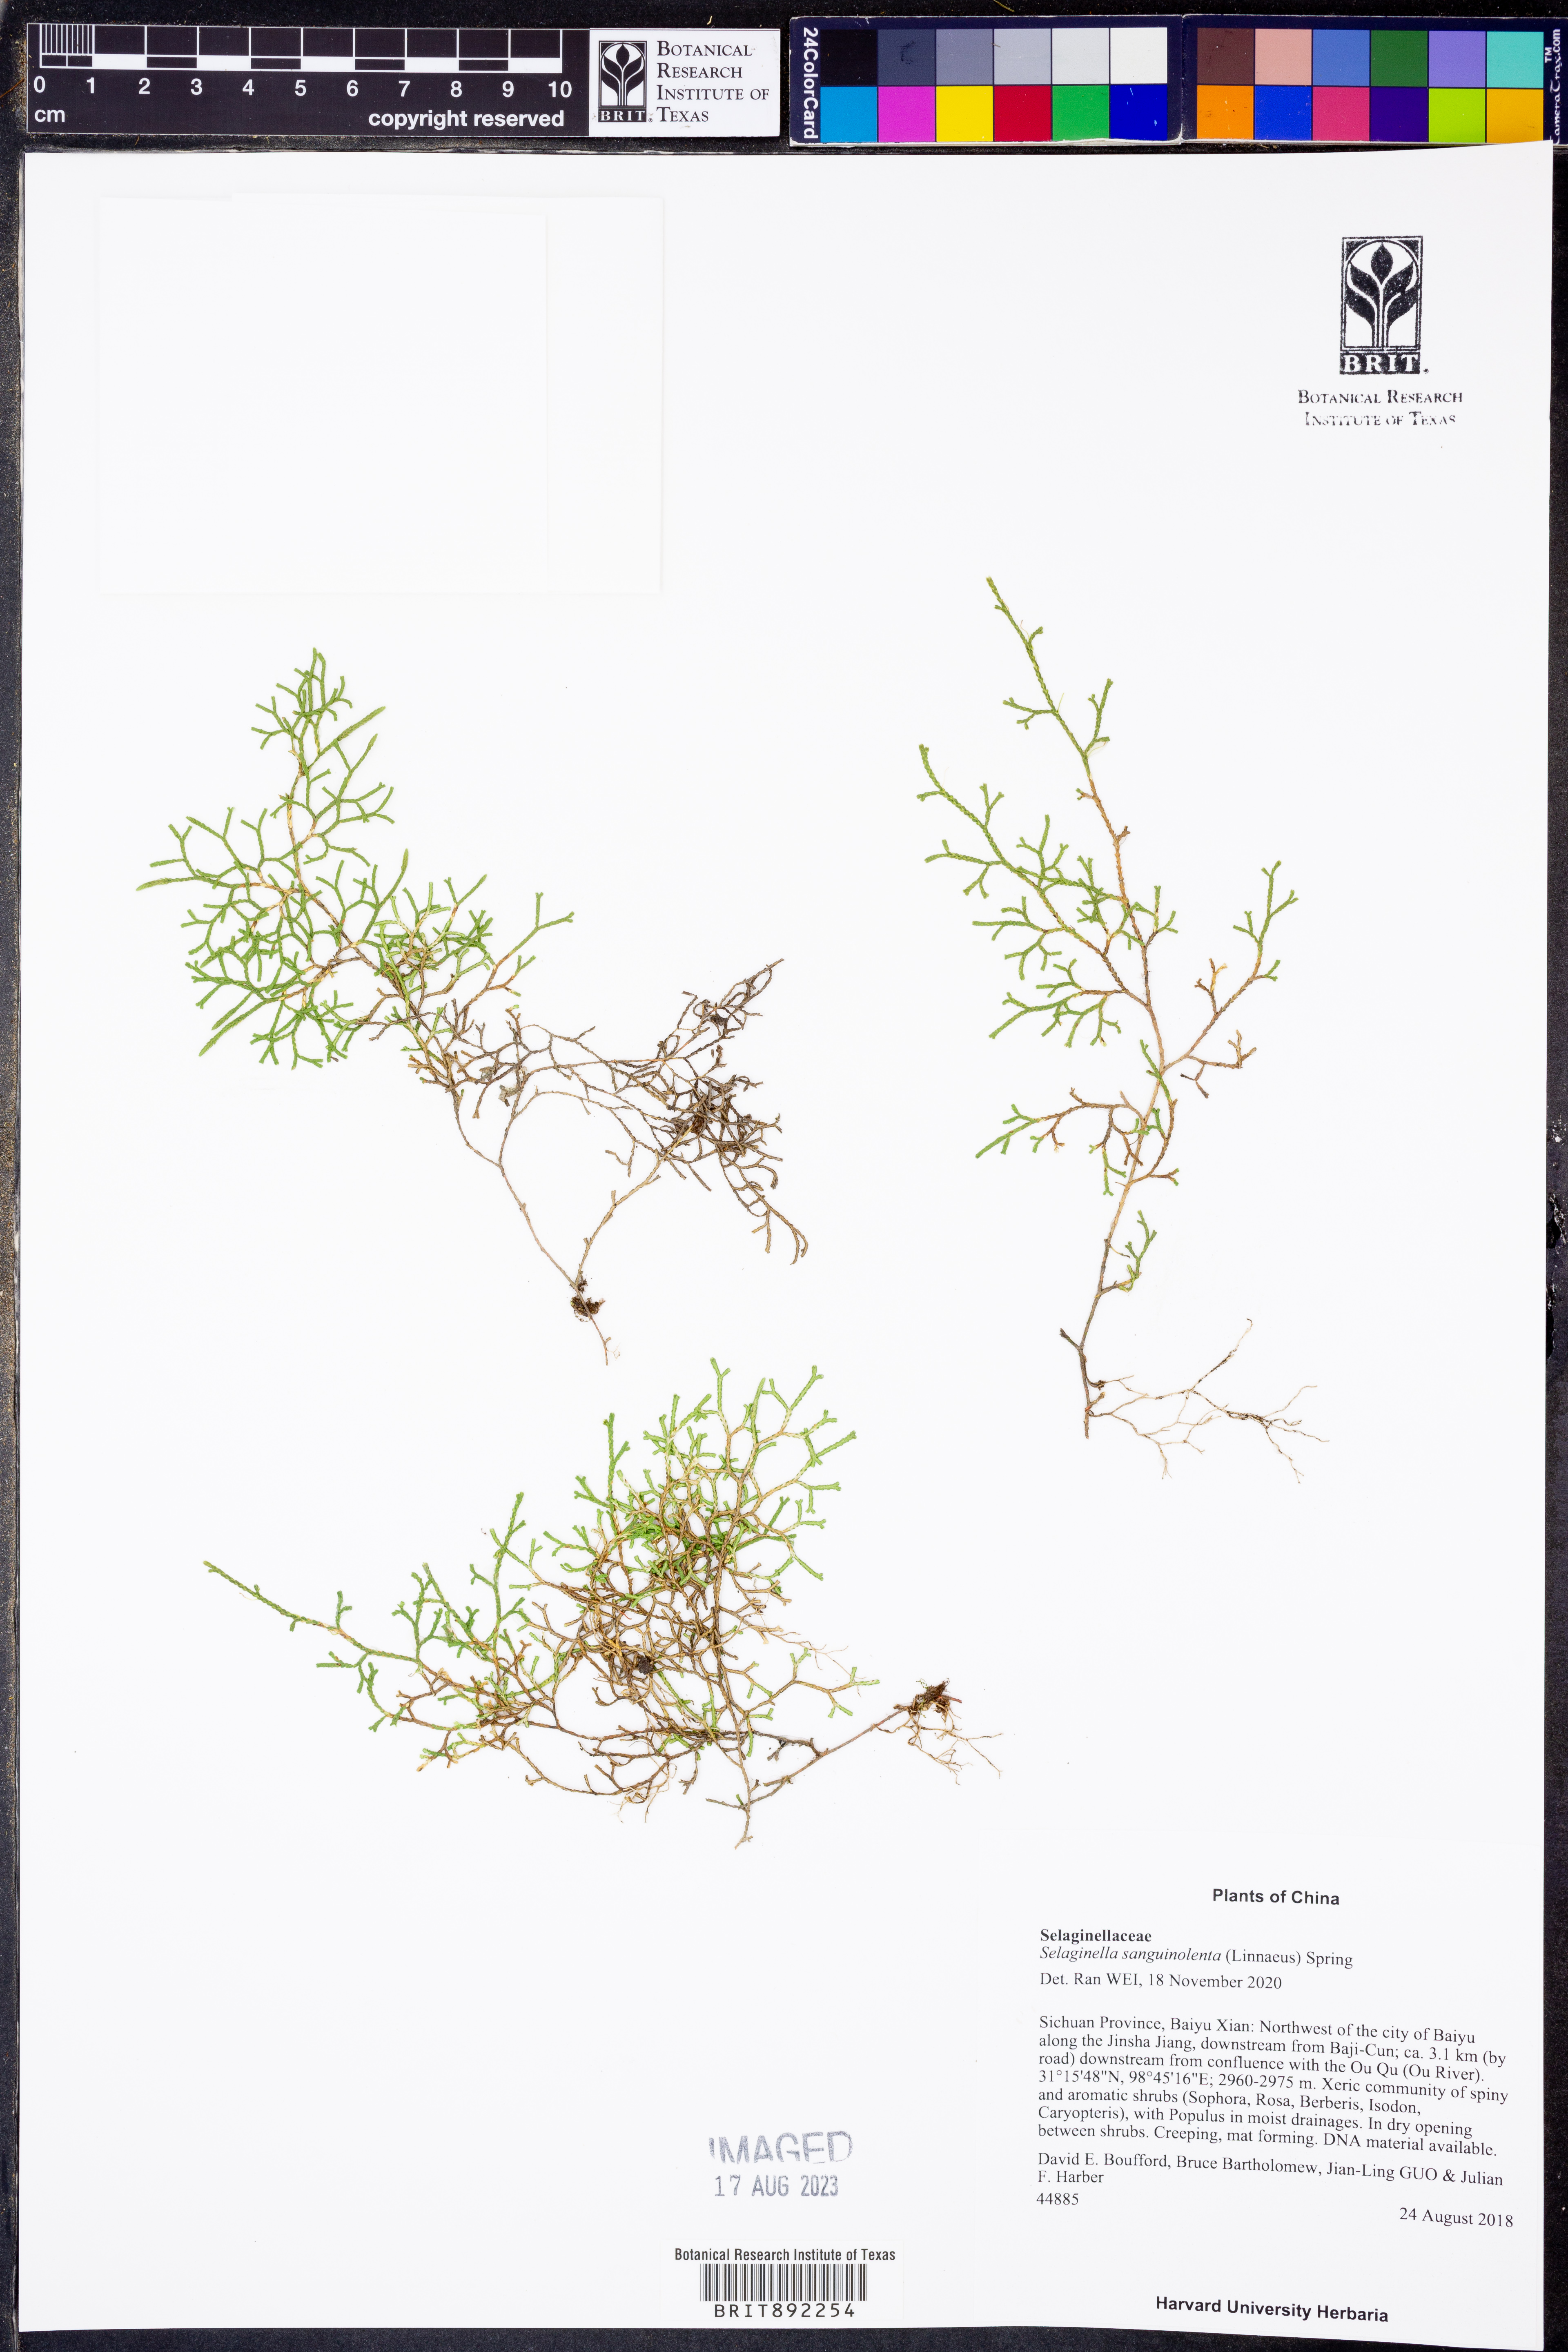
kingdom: Plantae
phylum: Tracheophyta
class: Lycopodiopsida
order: Selaginellales
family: Selaginellaceae
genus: Selaginella
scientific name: Selaginella sanguinolenta
